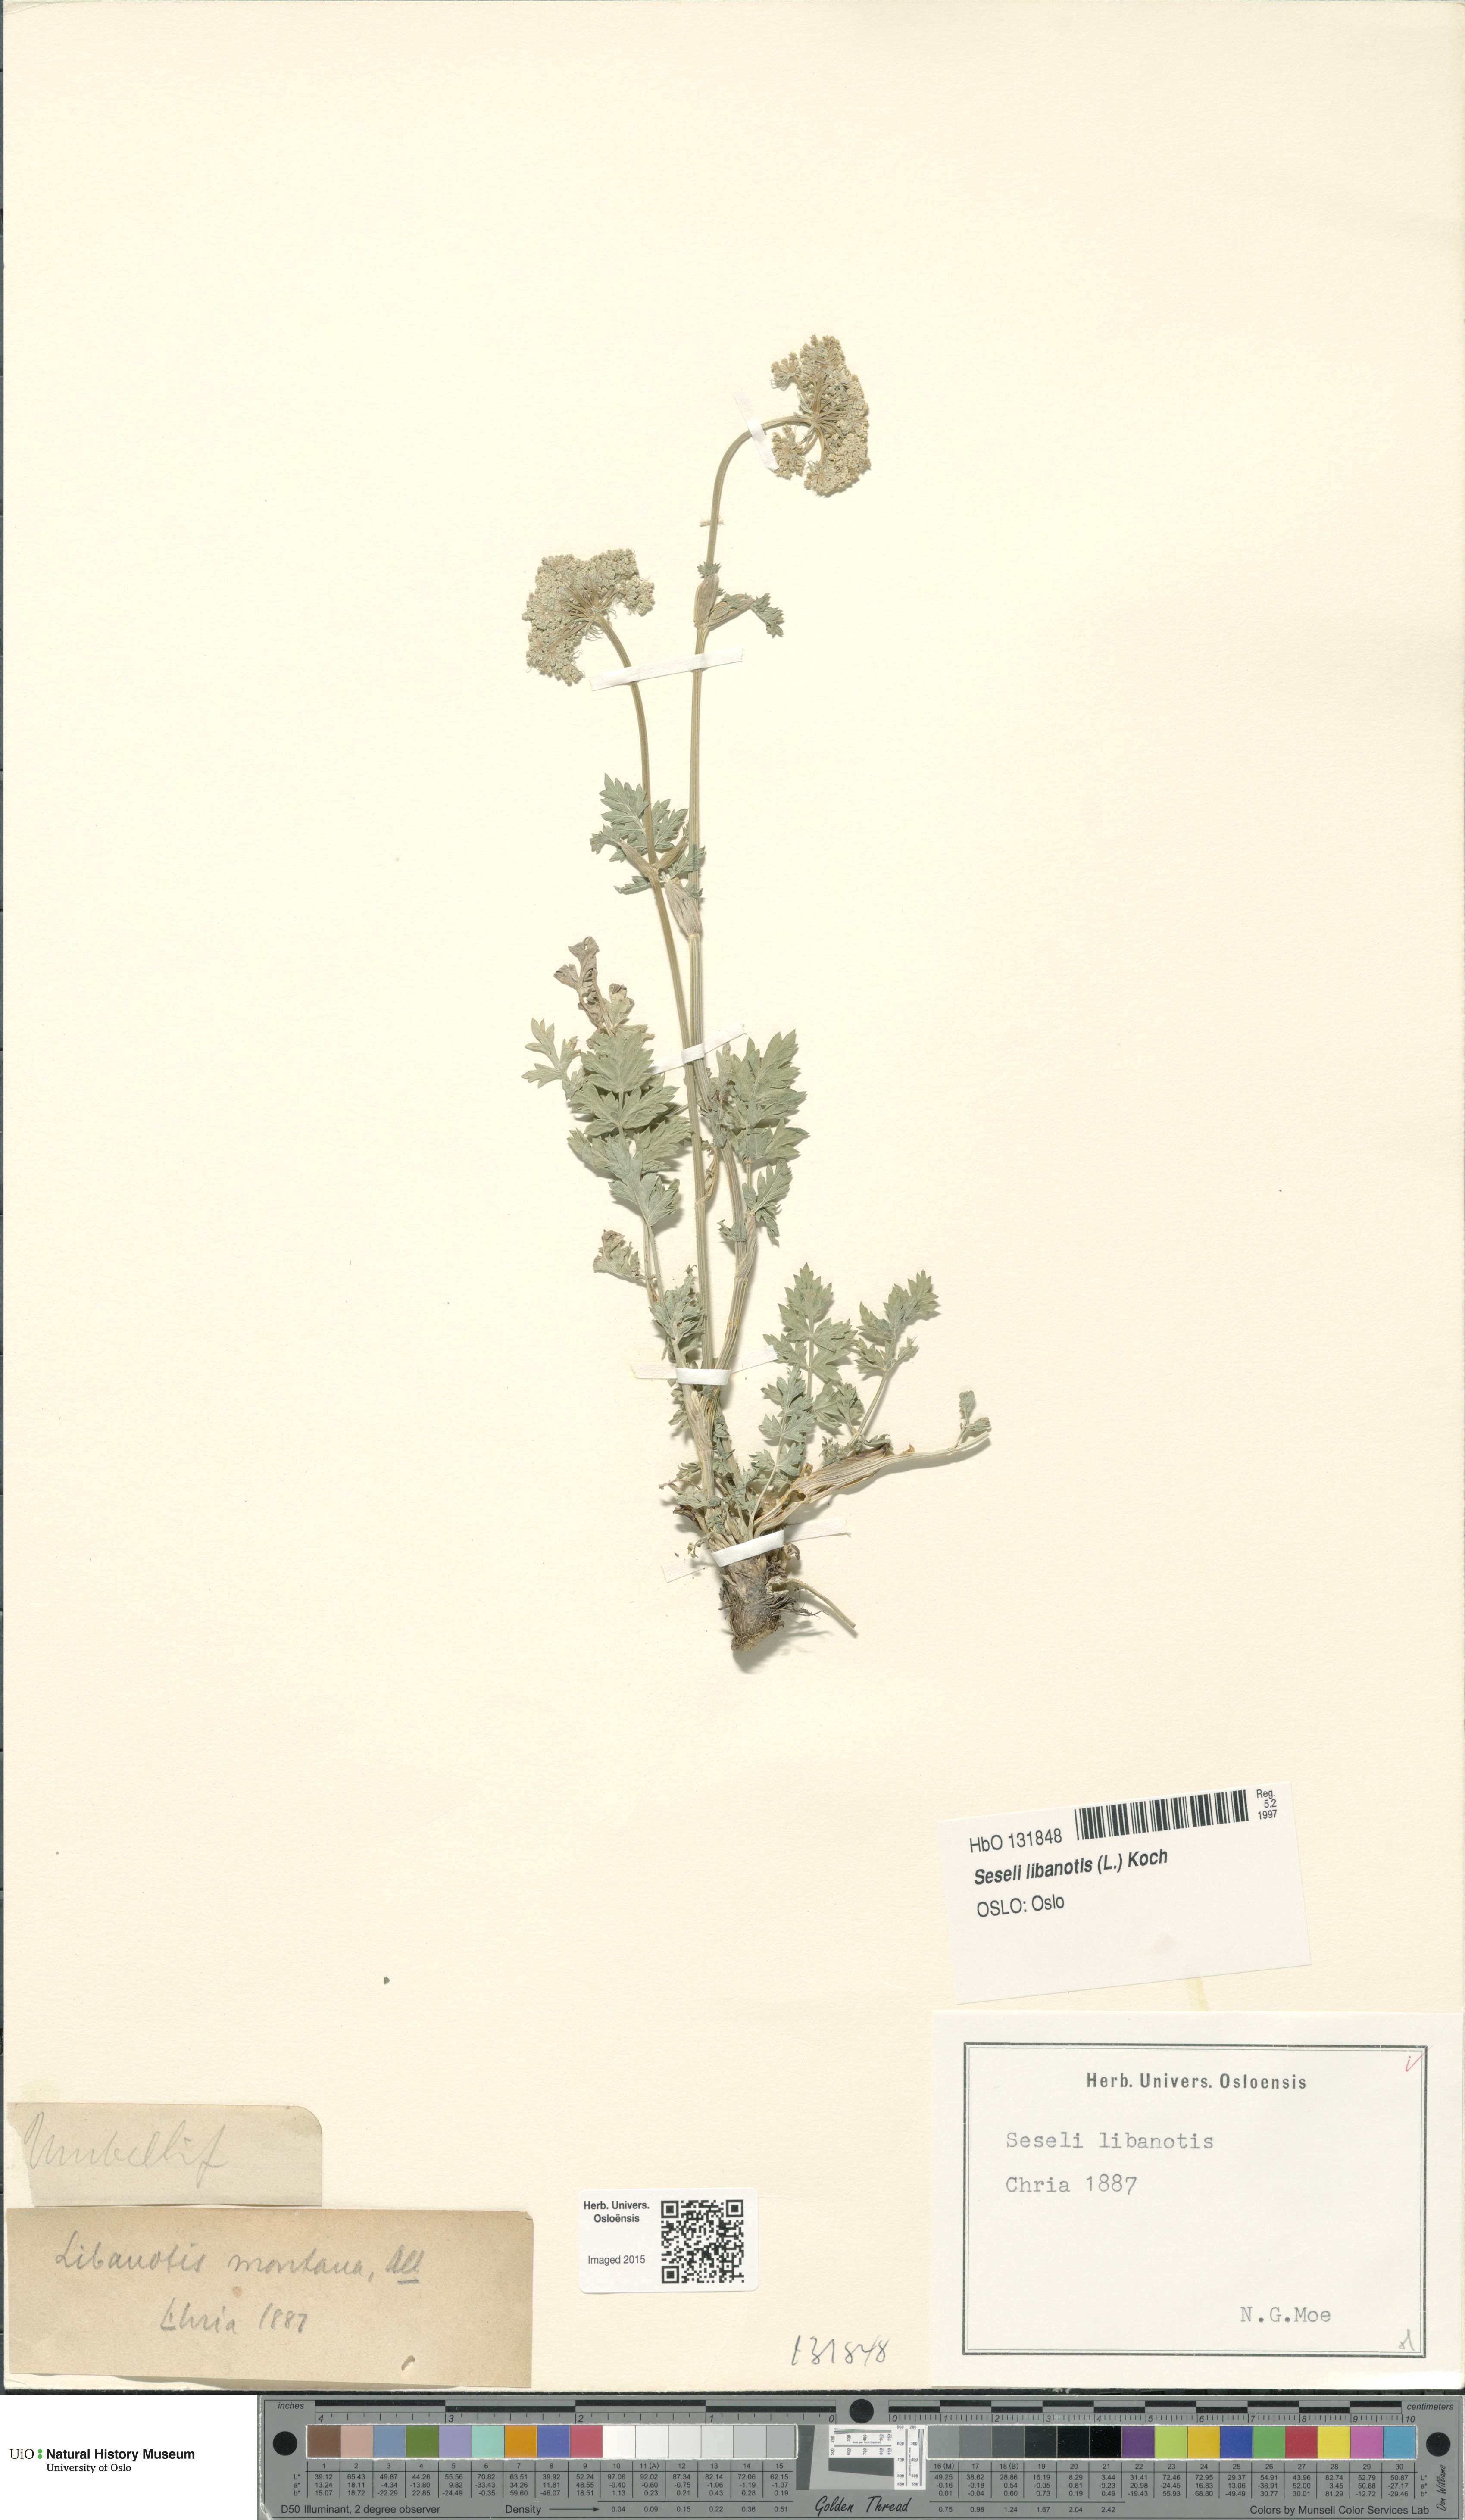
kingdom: Plantae
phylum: Tracheophyta
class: Magnoliopsida
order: Apiales
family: Apiaceae
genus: Seseli
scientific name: Seseli libanotis
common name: Mooncarrot
